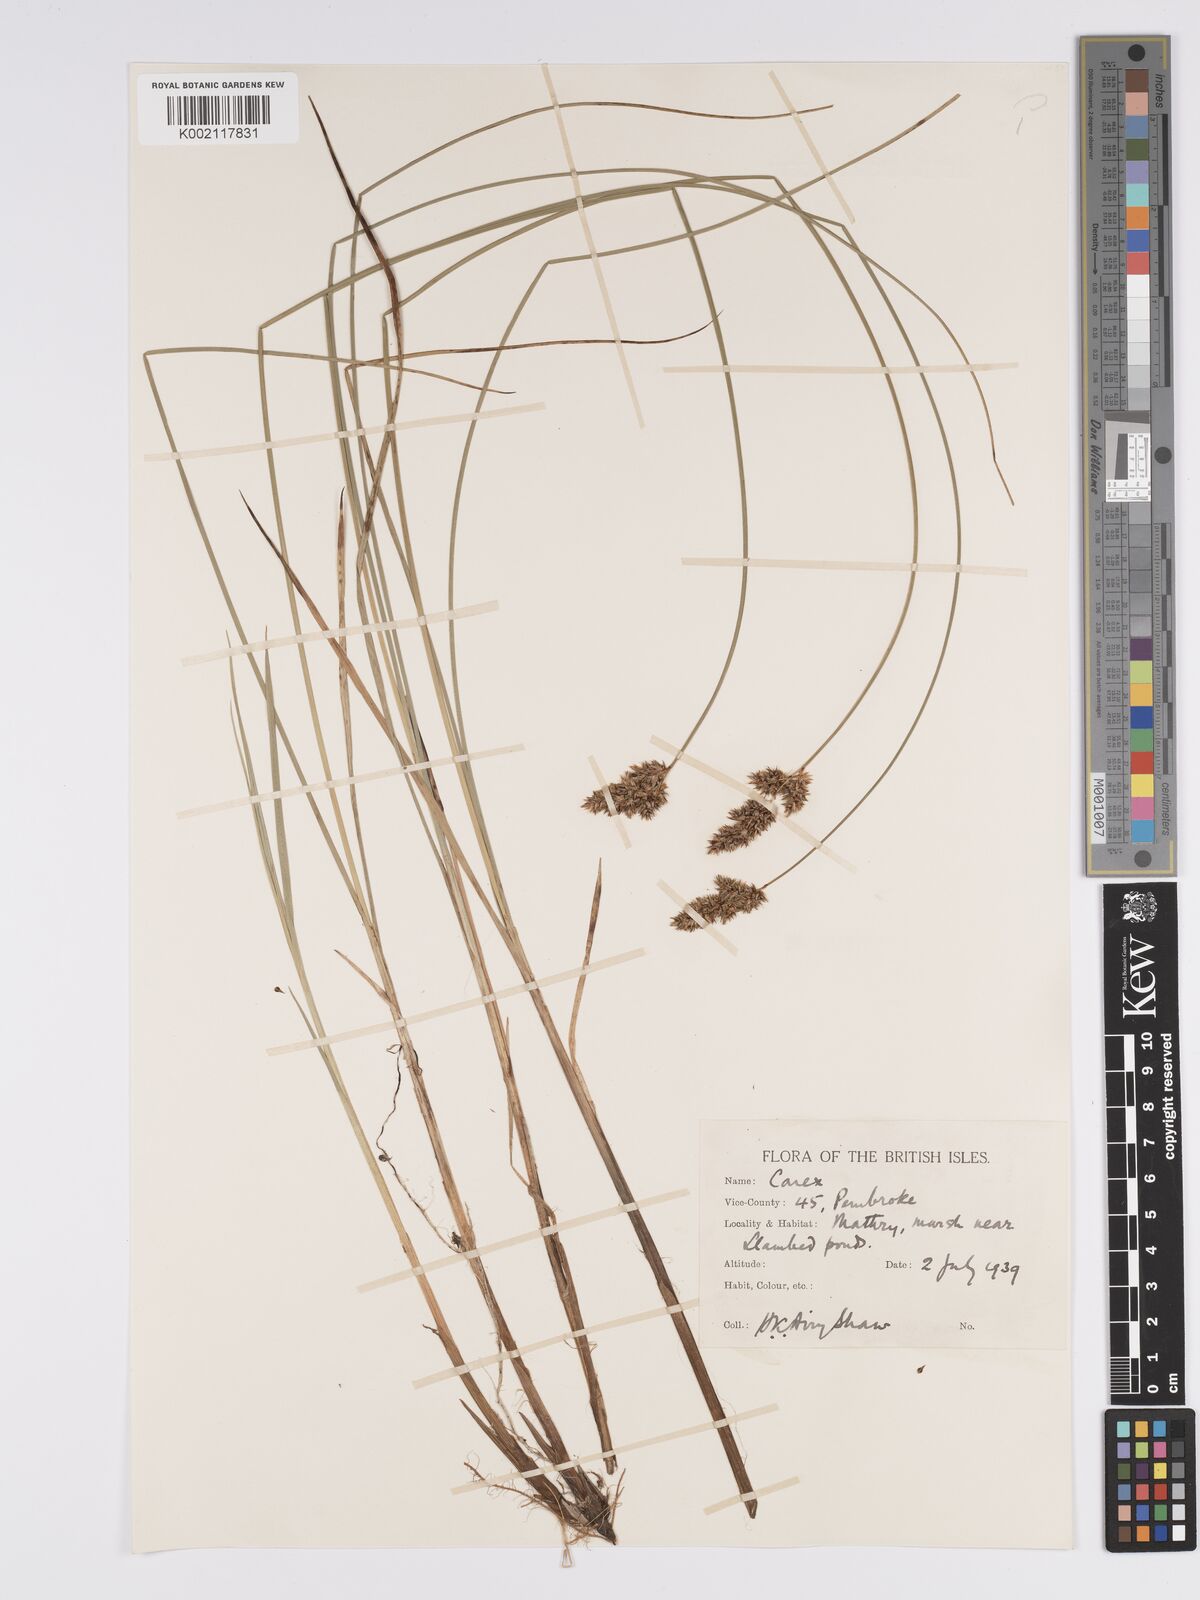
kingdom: Plantae
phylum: Tracheophyta
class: Liliopsida
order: Poales
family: Cyperaceae
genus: Carex
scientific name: Carex diandra
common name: Lesser tussock-sedge
